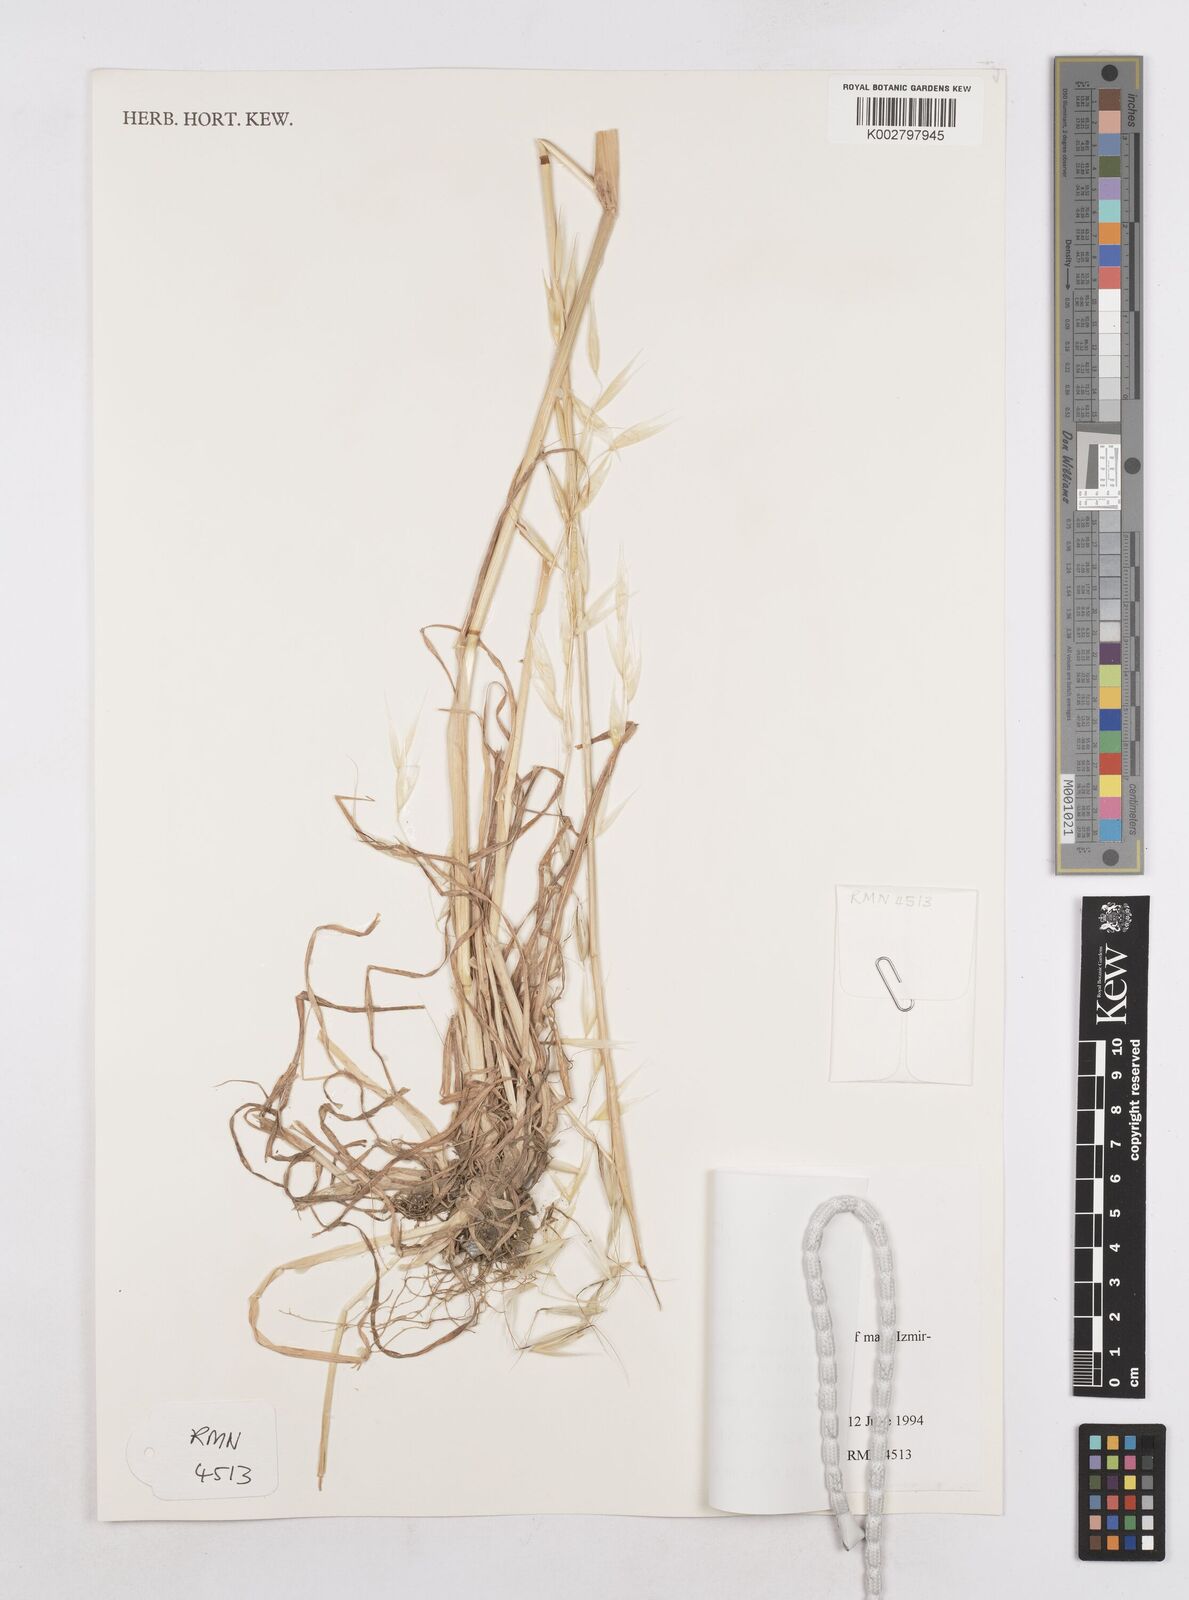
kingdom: Plantae
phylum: Tracheophyta
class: Liliopsida
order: Poales
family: Poaceae
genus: Avena
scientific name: Avena
